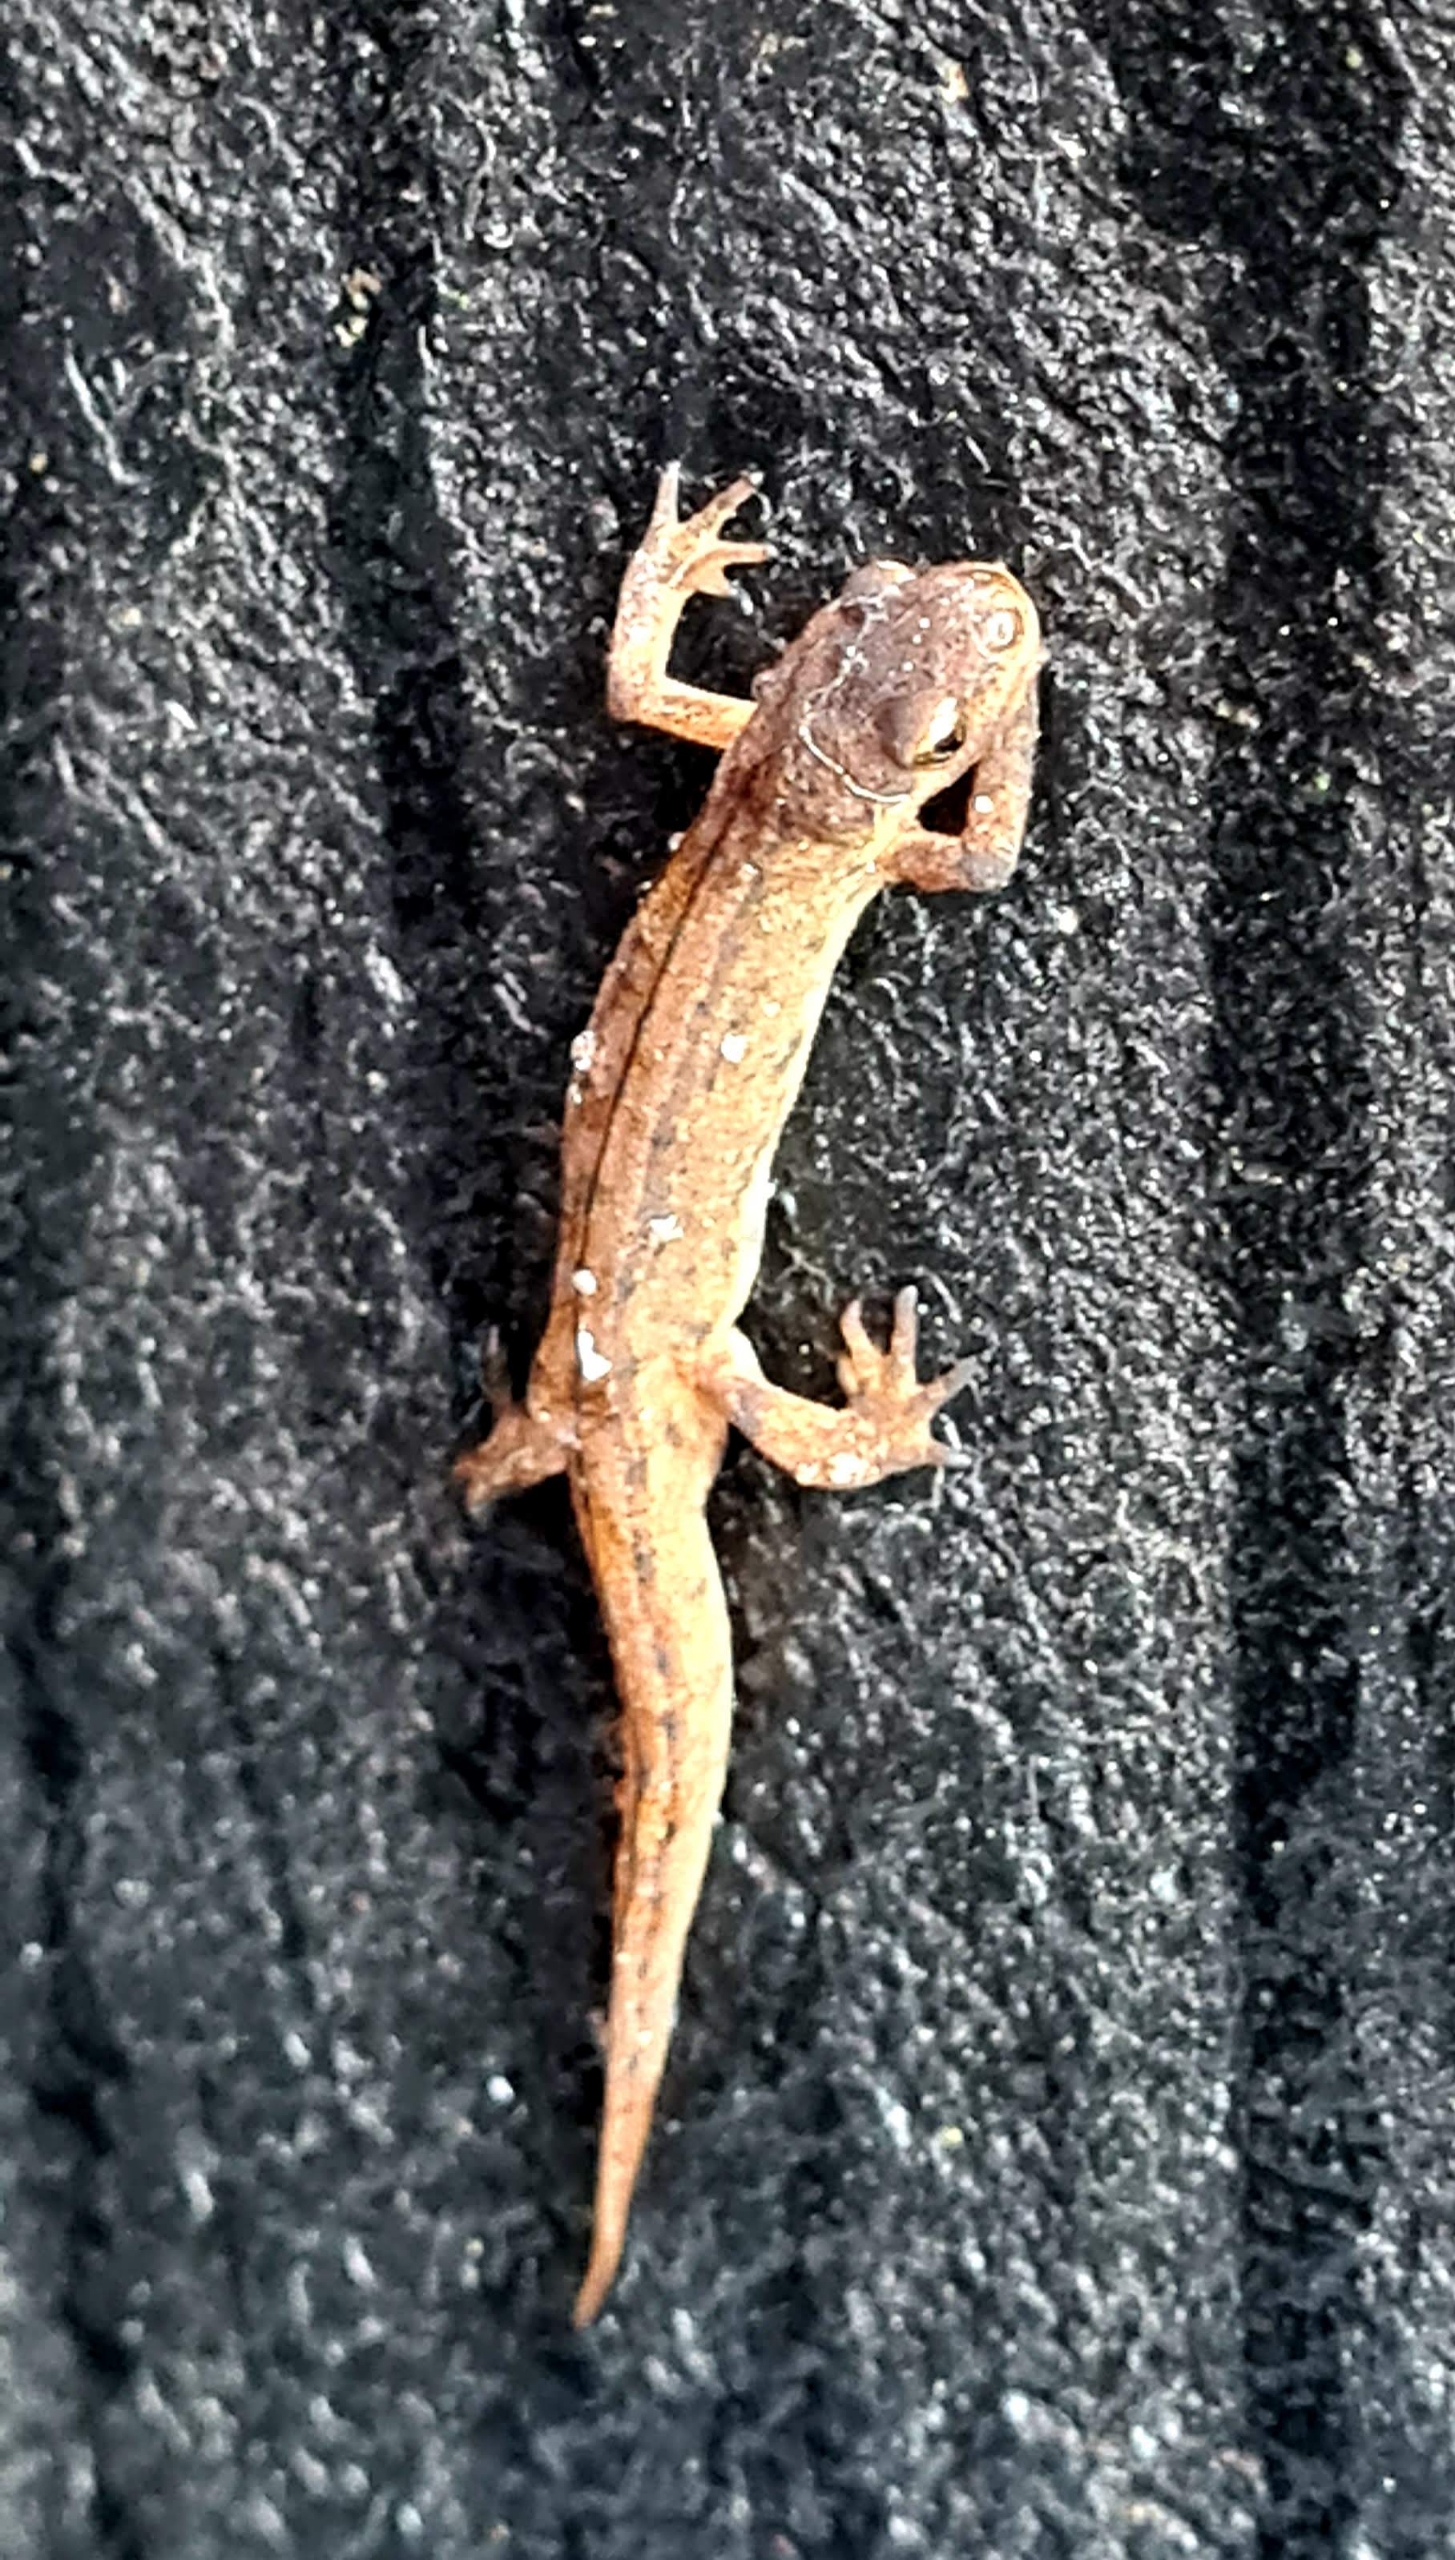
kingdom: Animalia
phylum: Chordata
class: Amphibia
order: Caudata
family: Salamandridae
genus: Lissotriton
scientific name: Lissotriton vulgaris
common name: Lille vandsalamander
